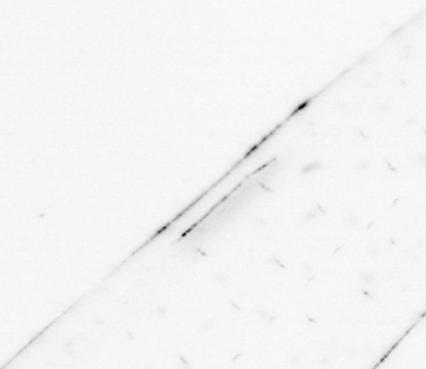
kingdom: Animalia
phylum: Chaetognatha
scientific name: Chaetognatha
